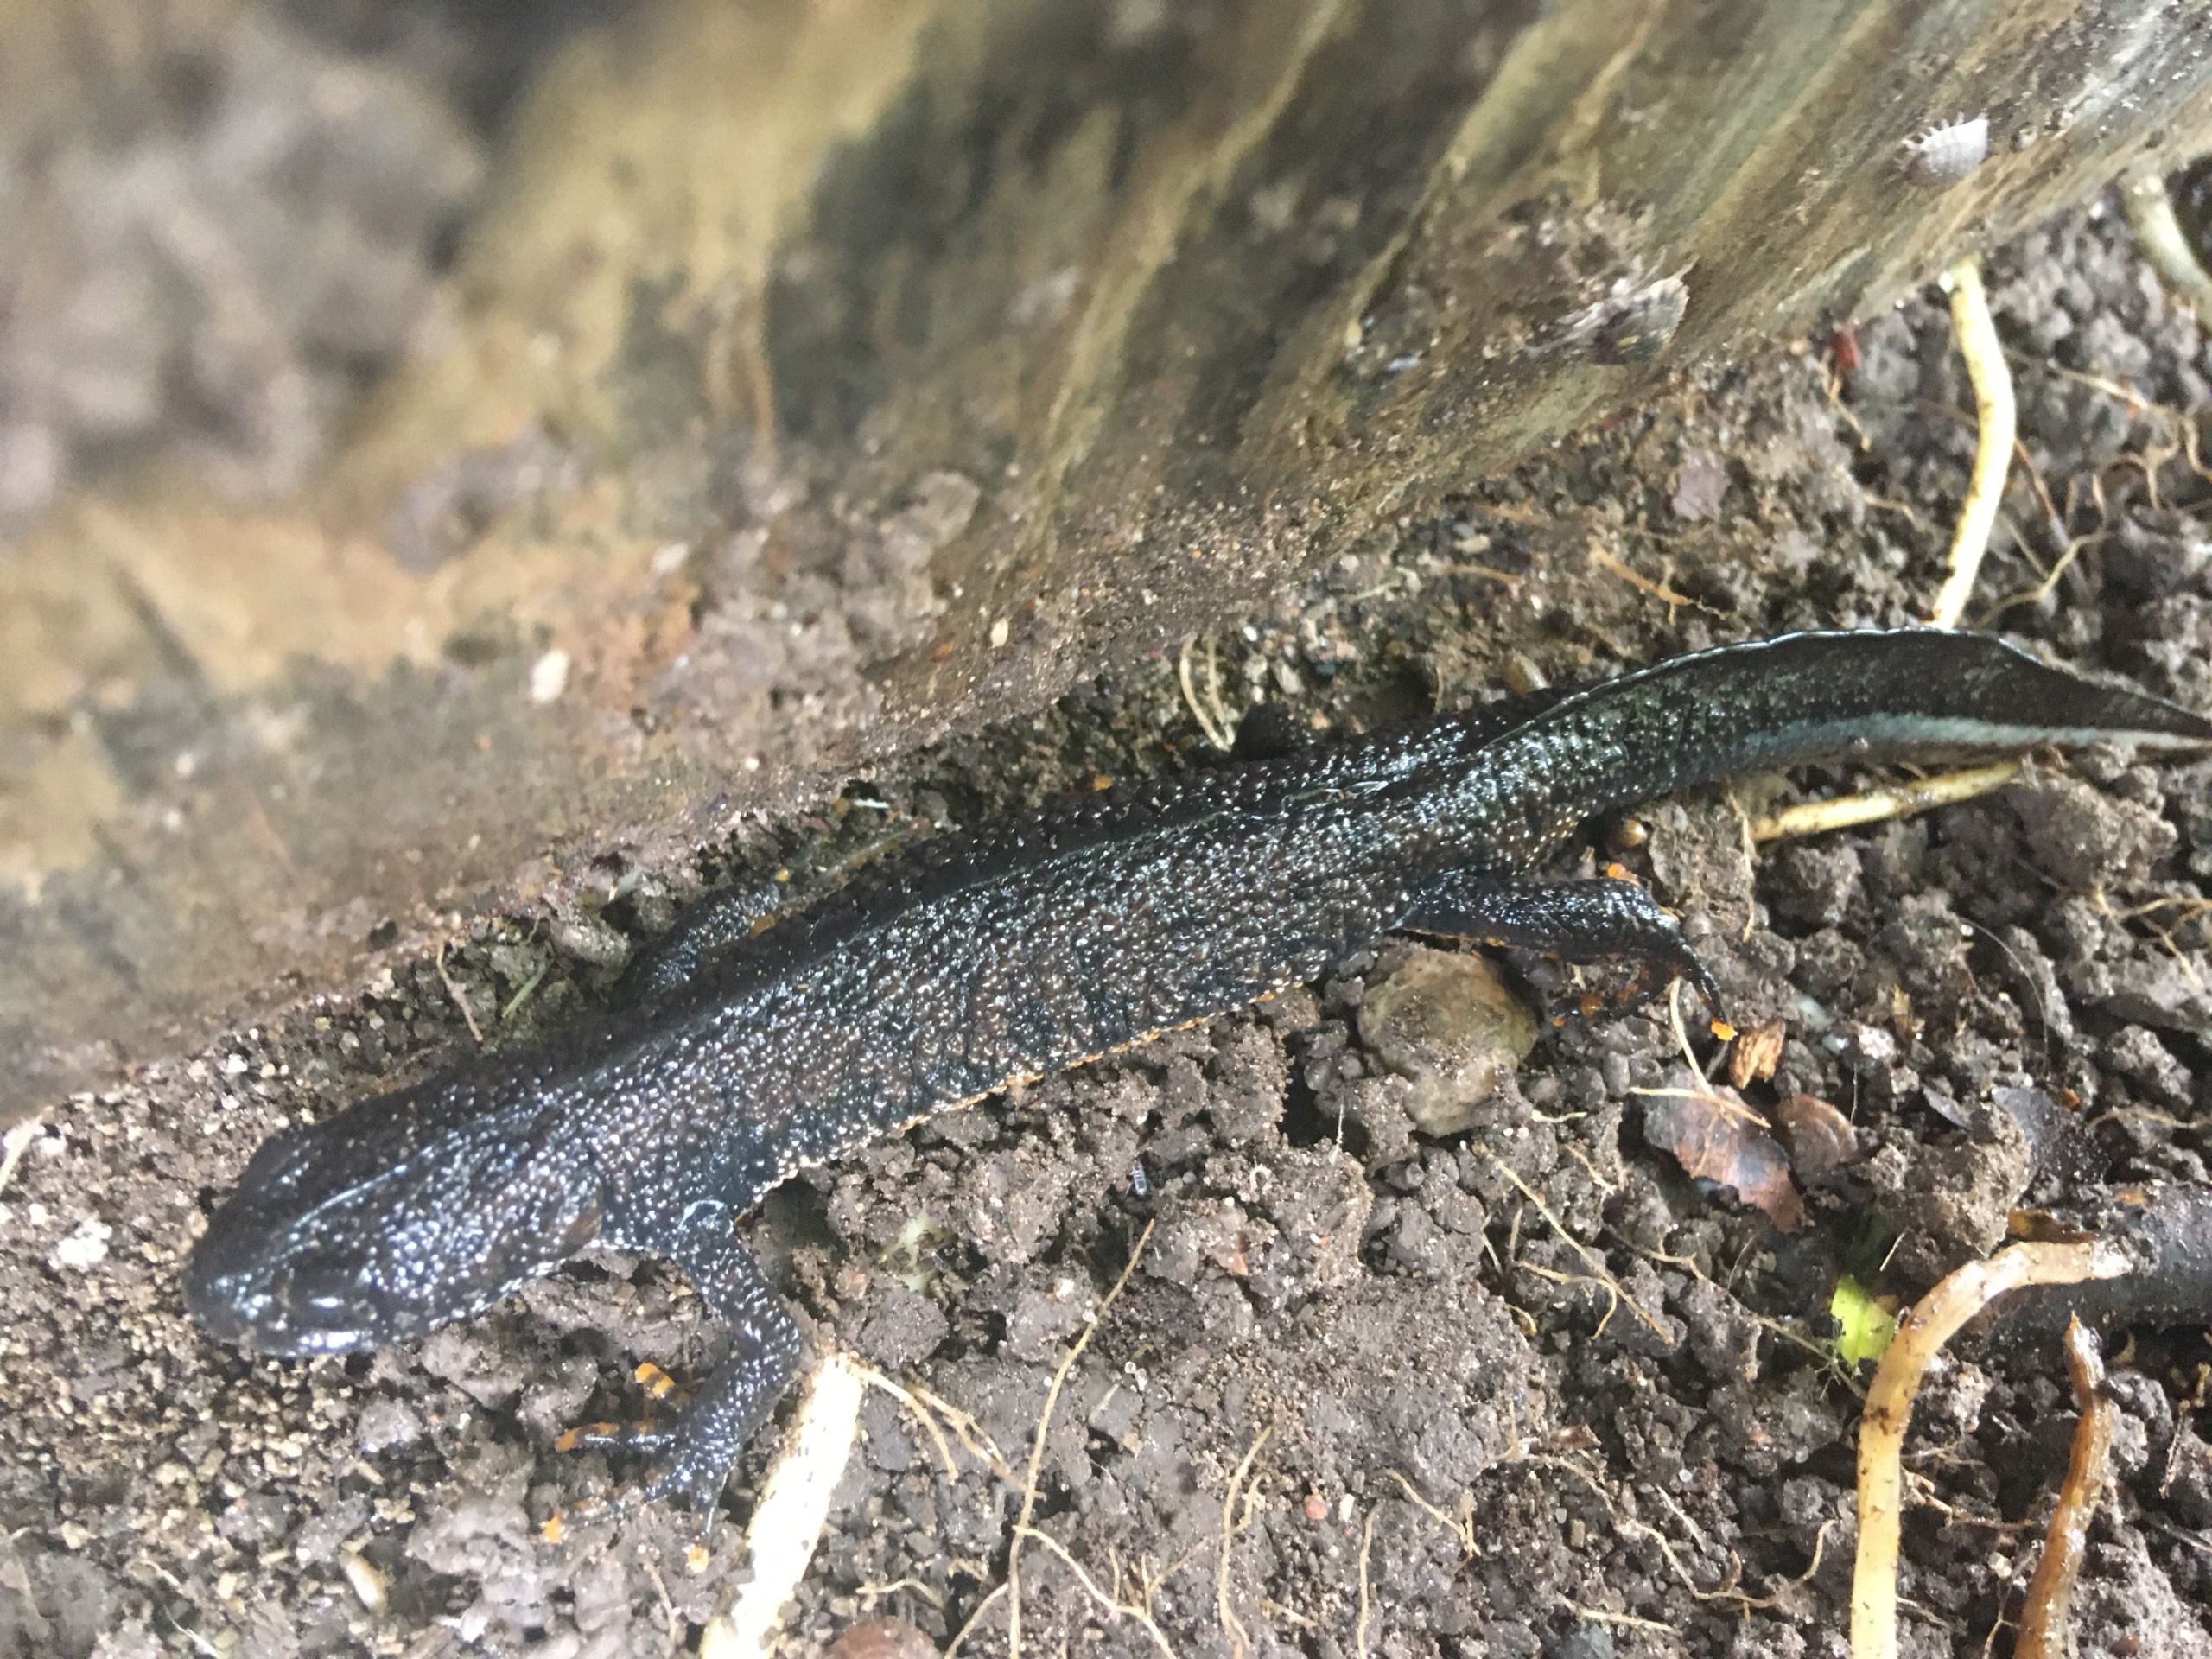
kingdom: Animalia
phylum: Chordata
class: Amphibia
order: Caudata
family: Salamandridae
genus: Triturus
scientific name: Triturus cristatus
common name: Stor vandsalamander
